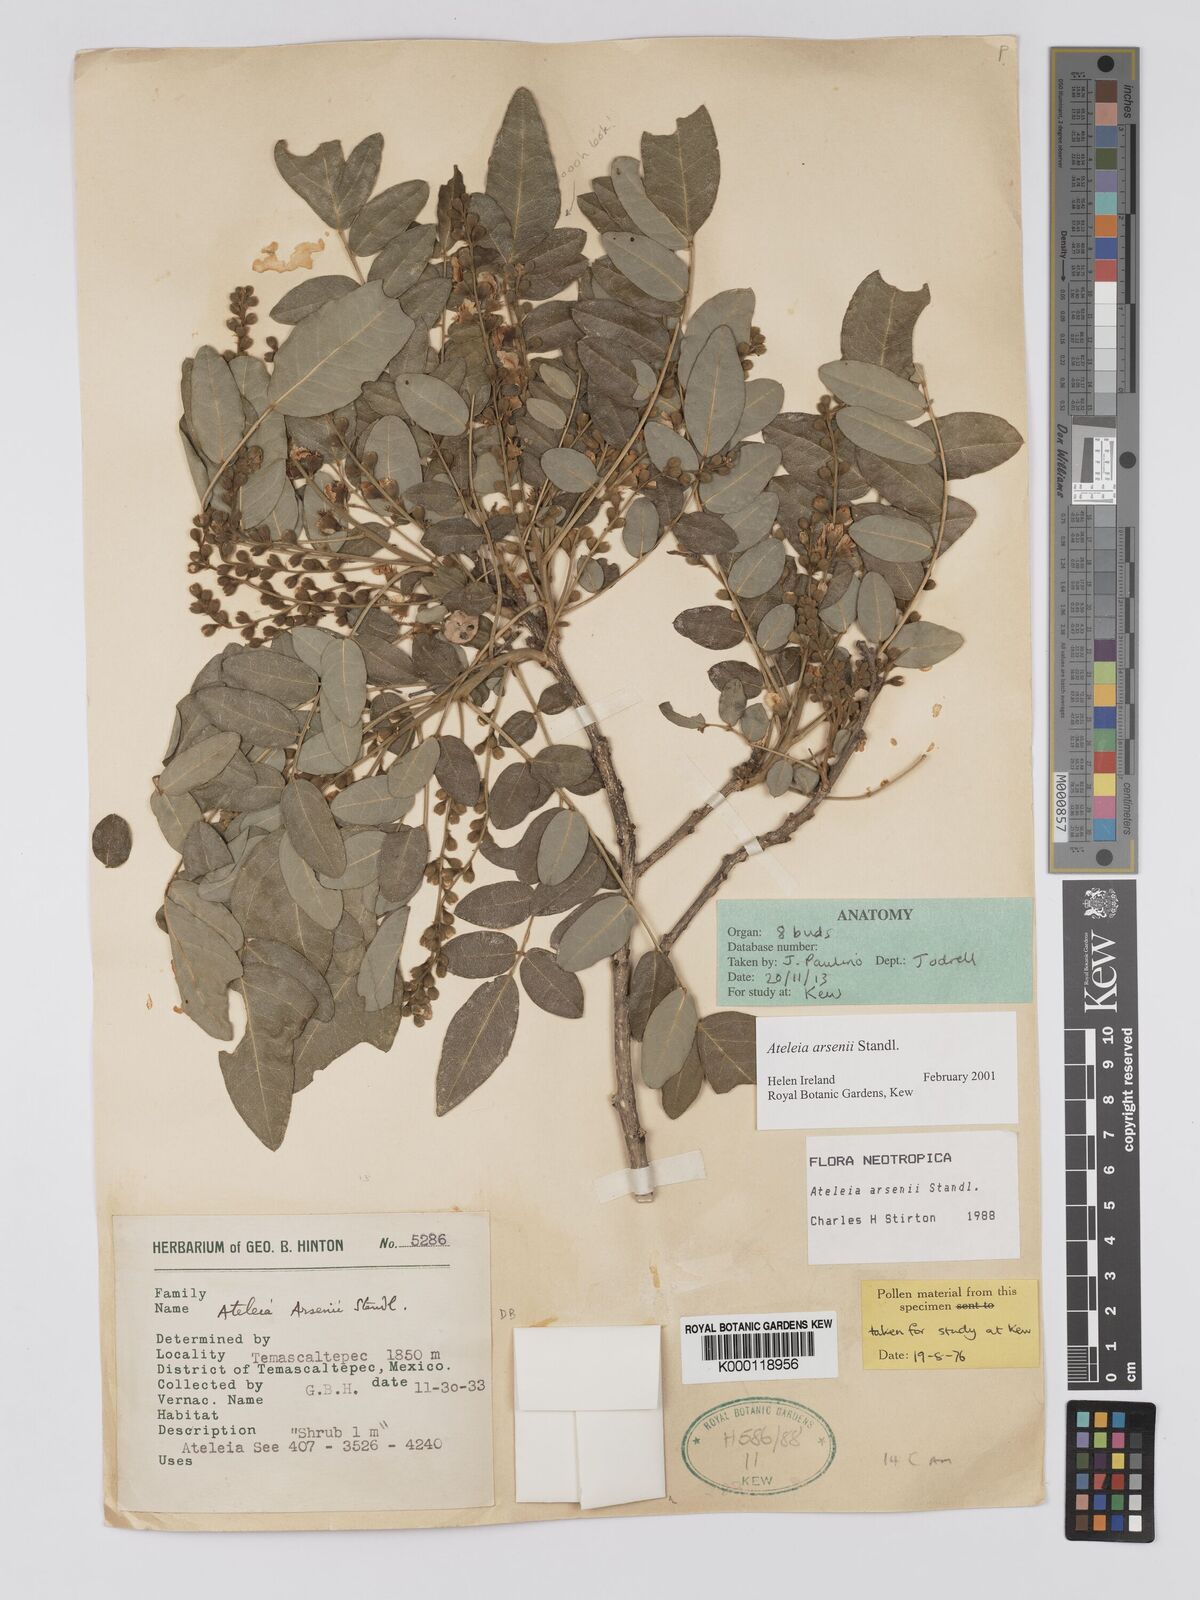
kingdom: Plantae
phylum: Tracheophyta
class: Magnoliopsida
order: Fabales
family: Fabaceae
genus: Ateleia
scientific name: Ateleia arsenii
